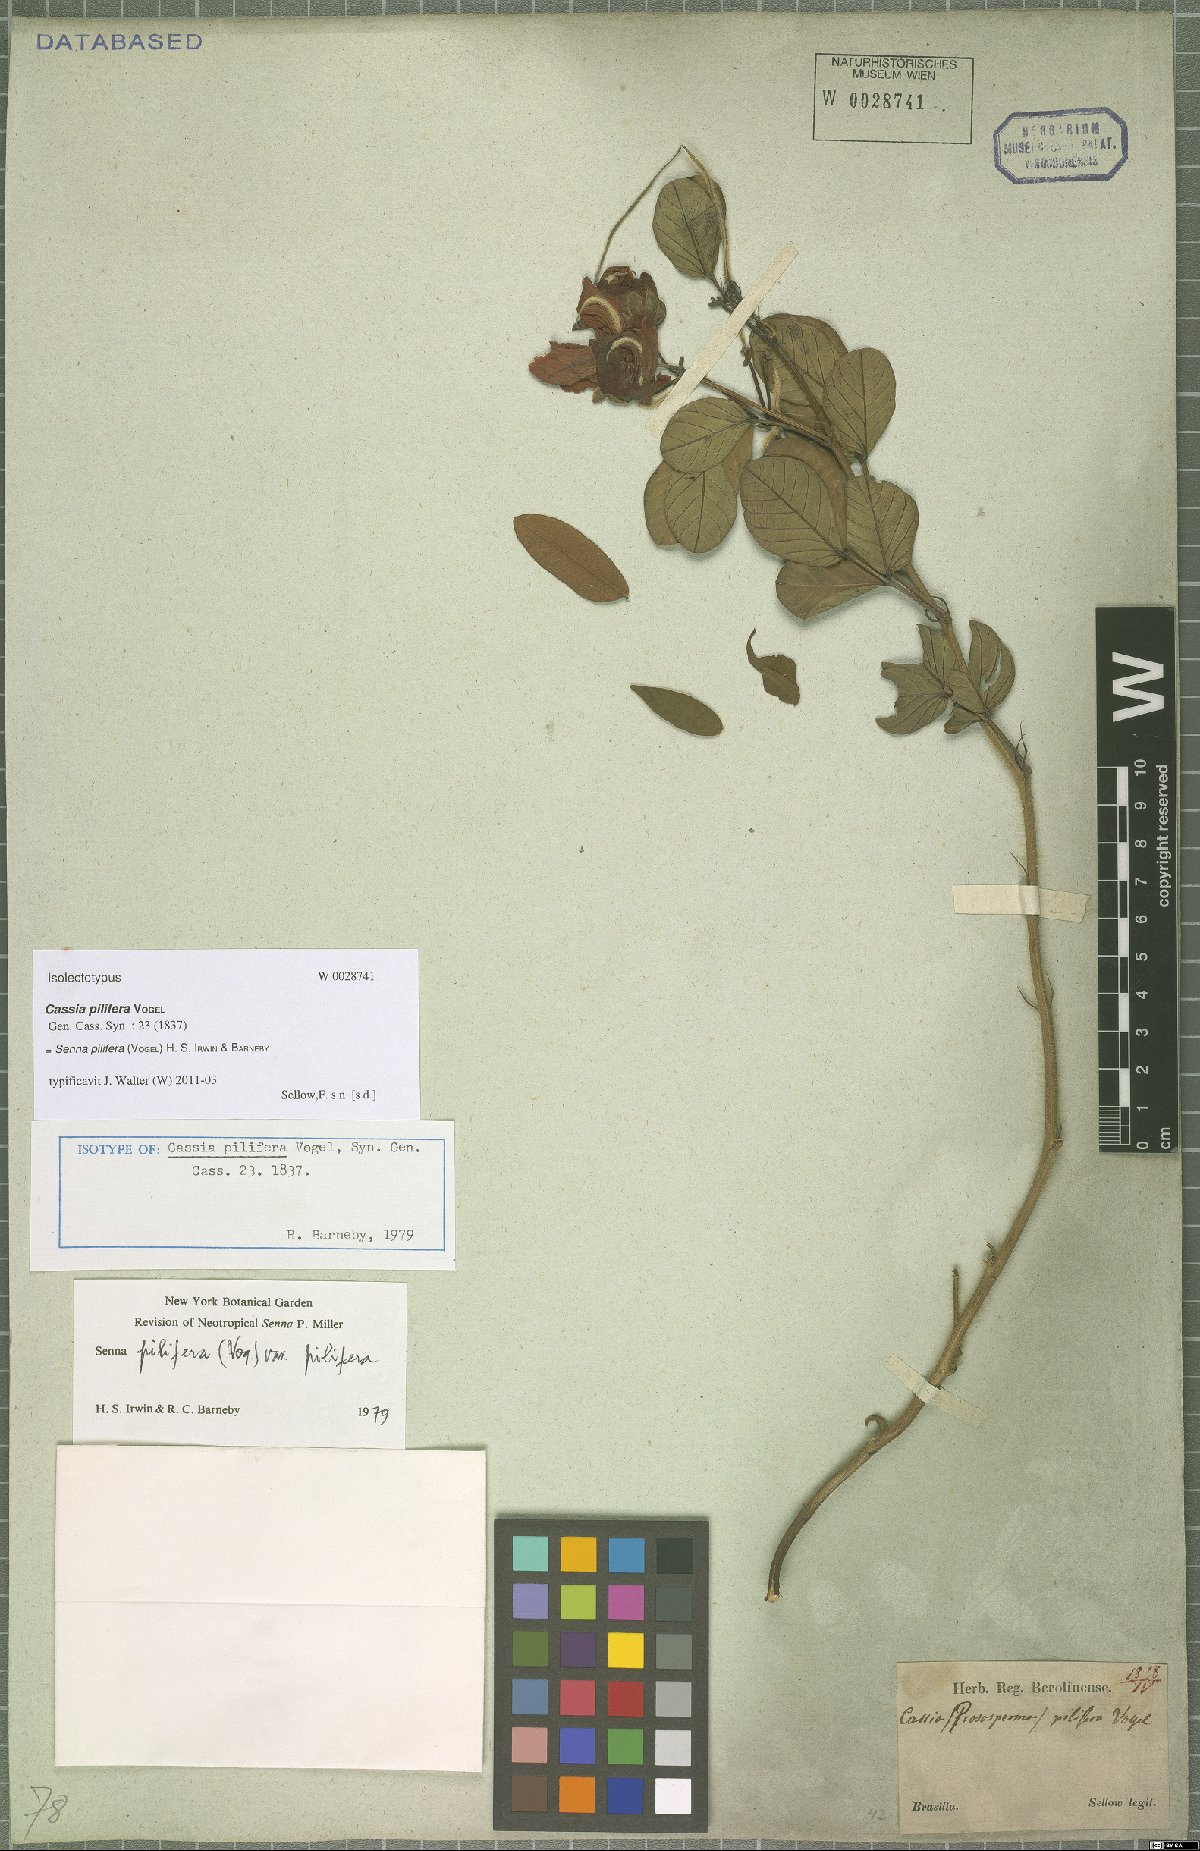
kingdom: Plantae
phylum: Tracheophyta
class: Magnoliopsida
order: Fabales
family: Fabaceae
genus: Senna
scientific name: Senna pilifera
